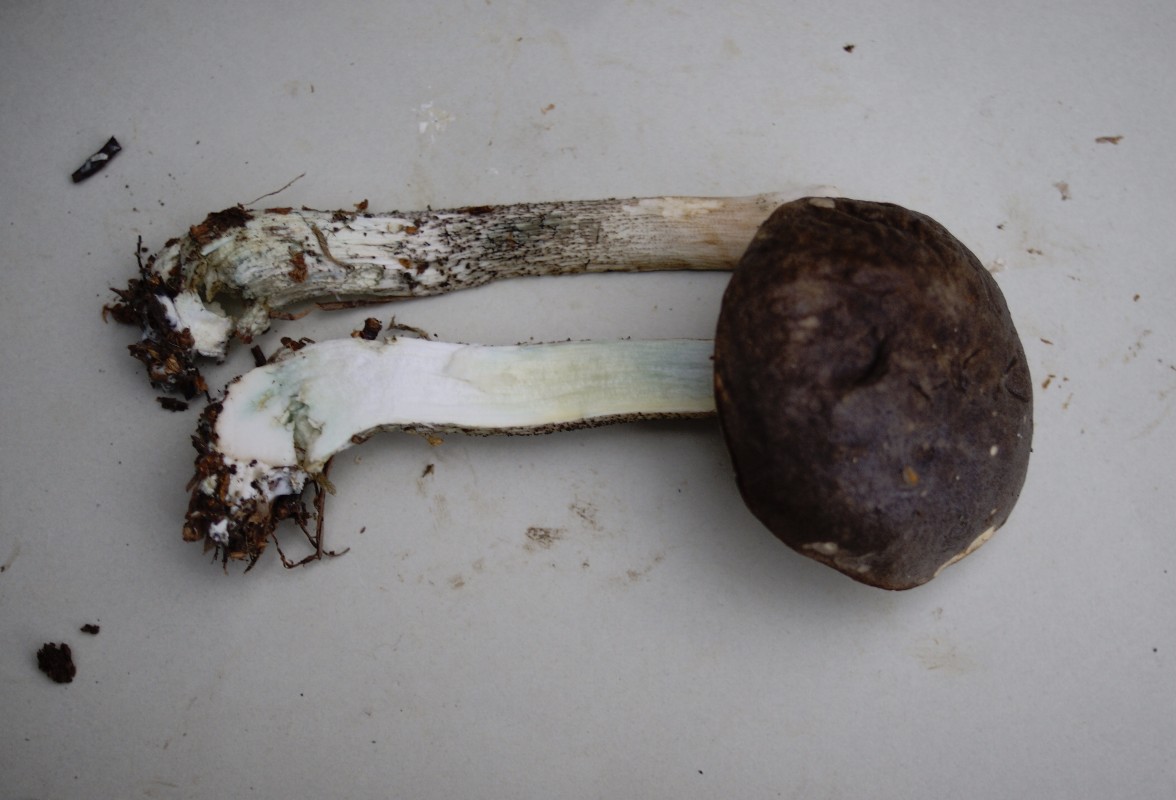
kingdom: Fungi
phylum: Basidiomycota
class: Agaricomycetes
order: Boletales
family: Boletaceae
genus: Leccinum
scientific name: Leccinum variicolor
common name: flammet skælrørhat
